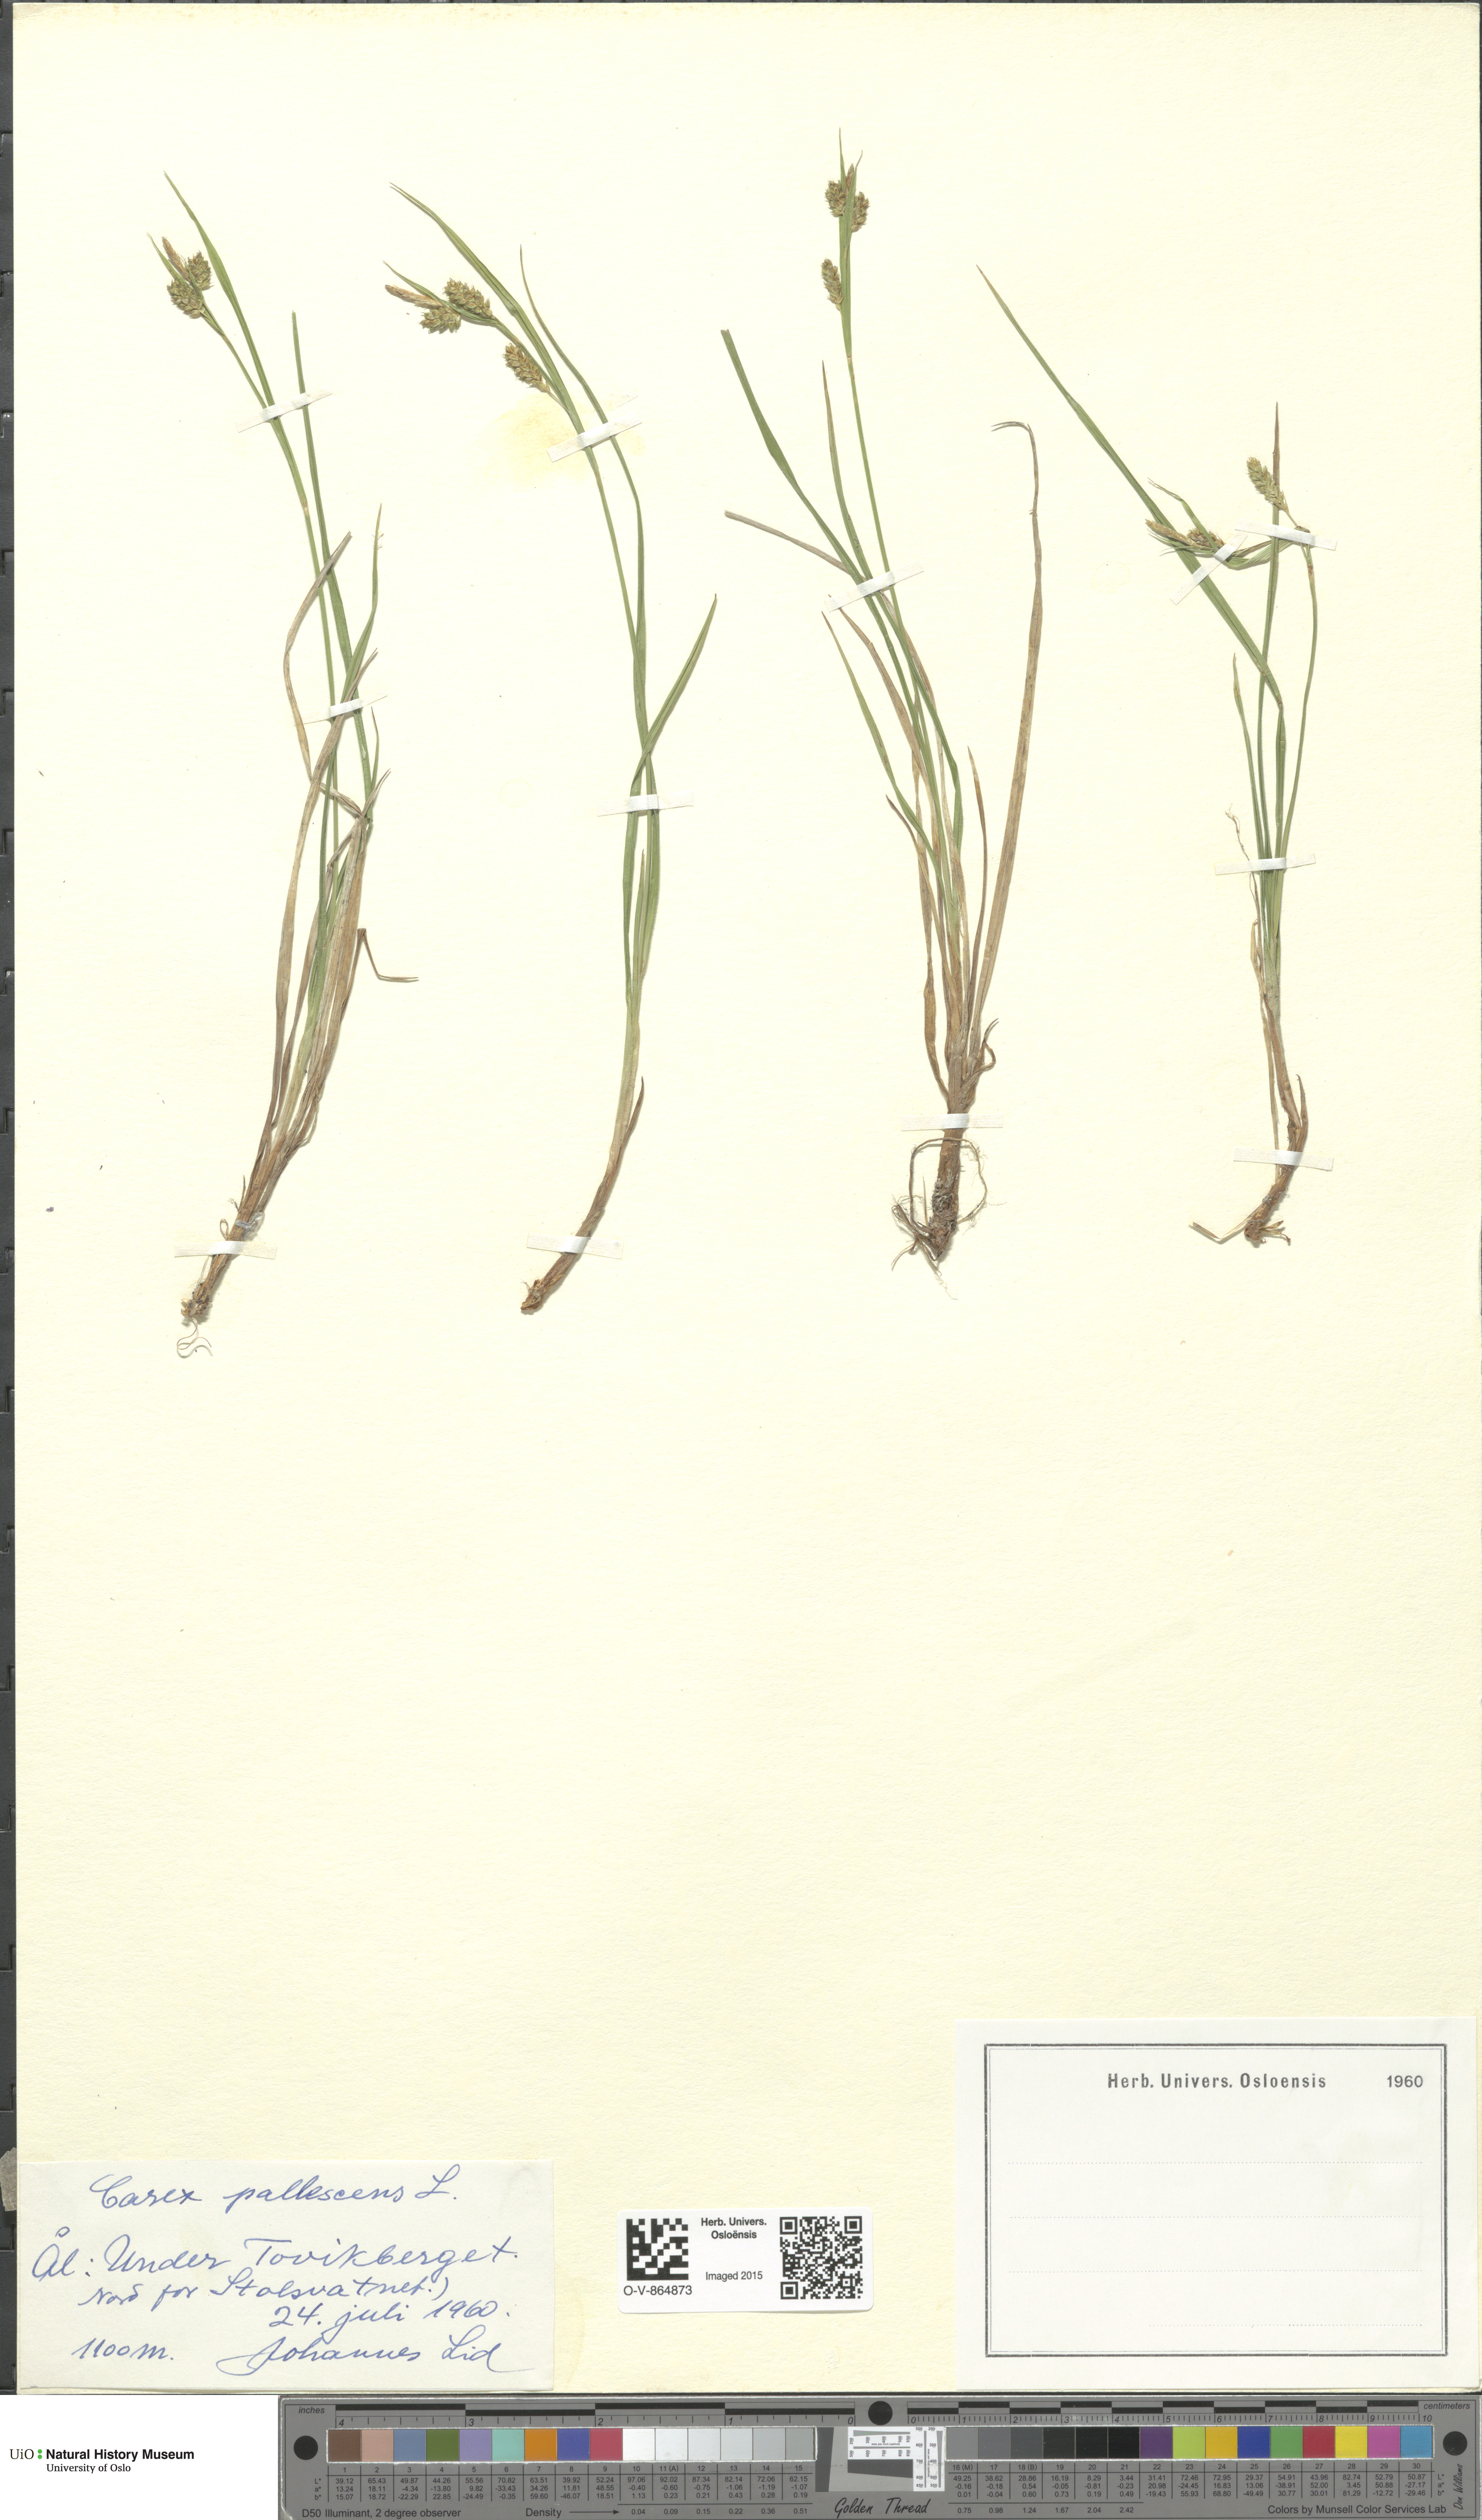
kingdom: Plantae
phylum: Tracheophyta
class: Liliopsida
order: Poales
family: Cyperaceae
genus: Carex
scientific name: Carex pallescens
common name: Pale sedge
